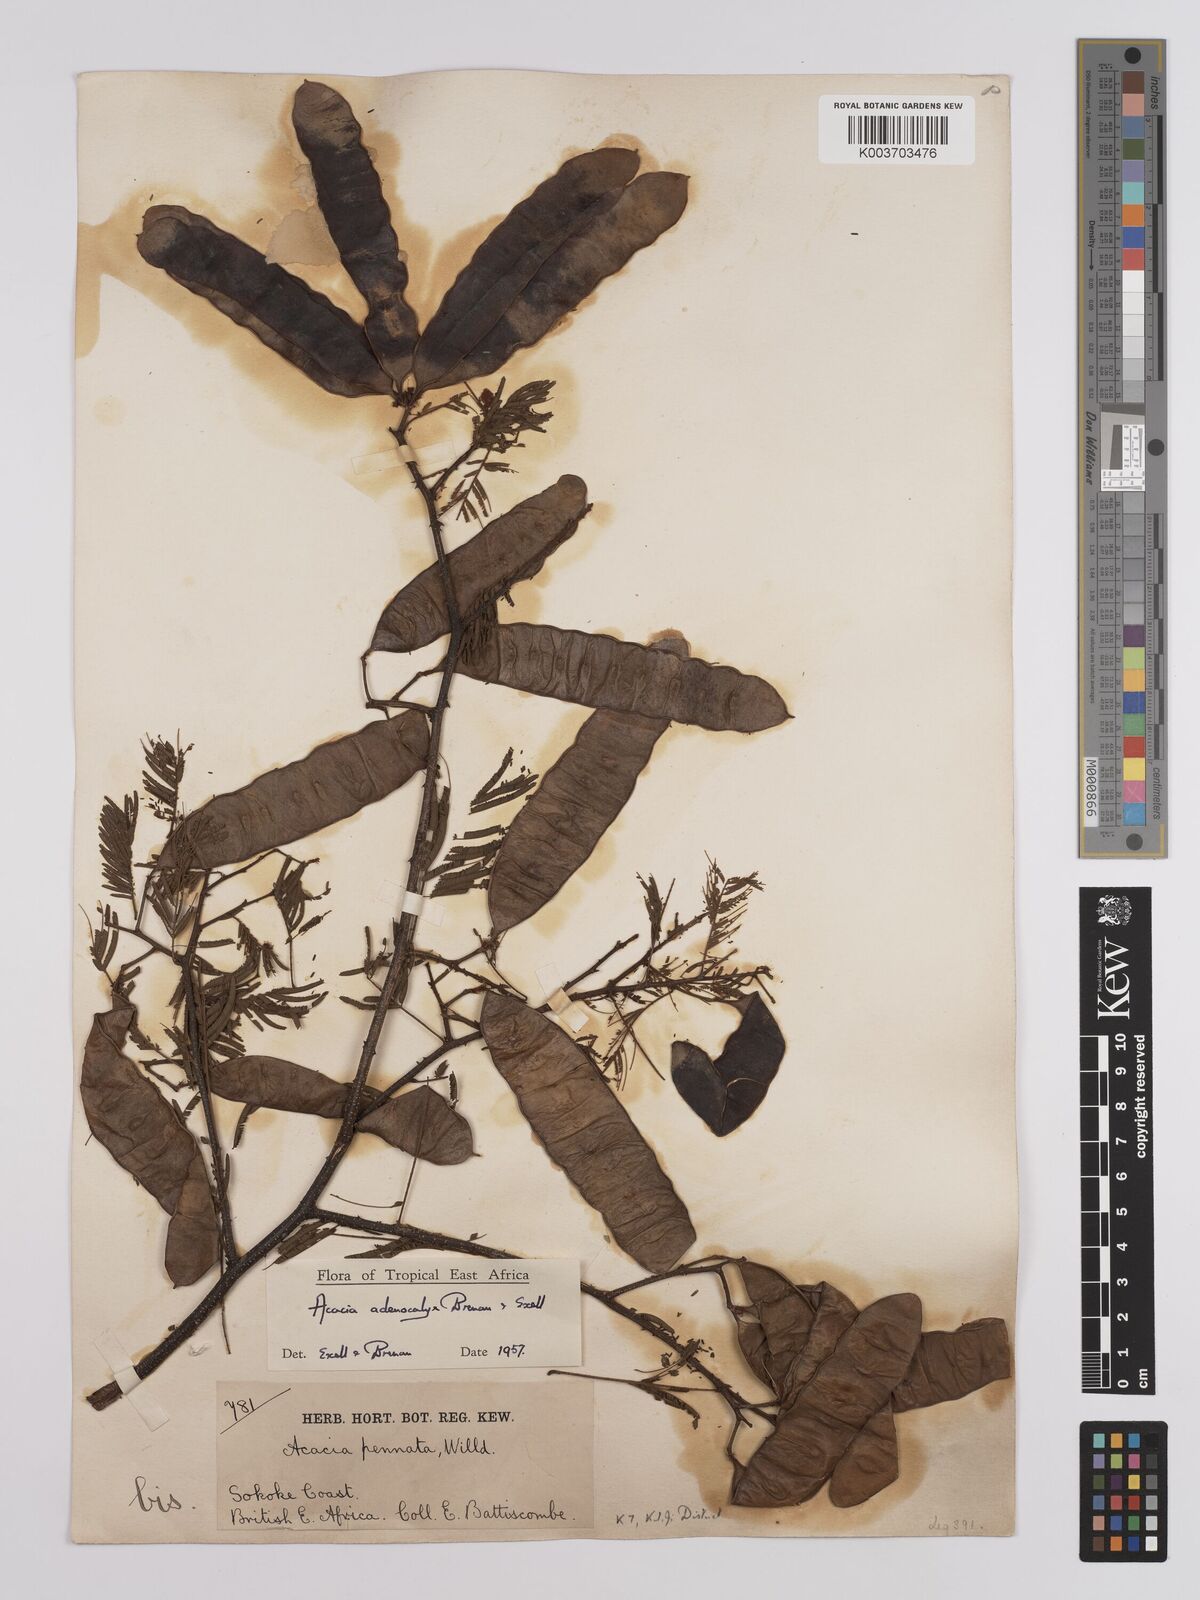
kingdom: Plantae
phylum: Tracheophyta
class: Magnoliopsida
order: Fabales
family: Fabaceae
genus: Senegalia
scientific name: Senegalia adenocalyx
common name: Pfurura
